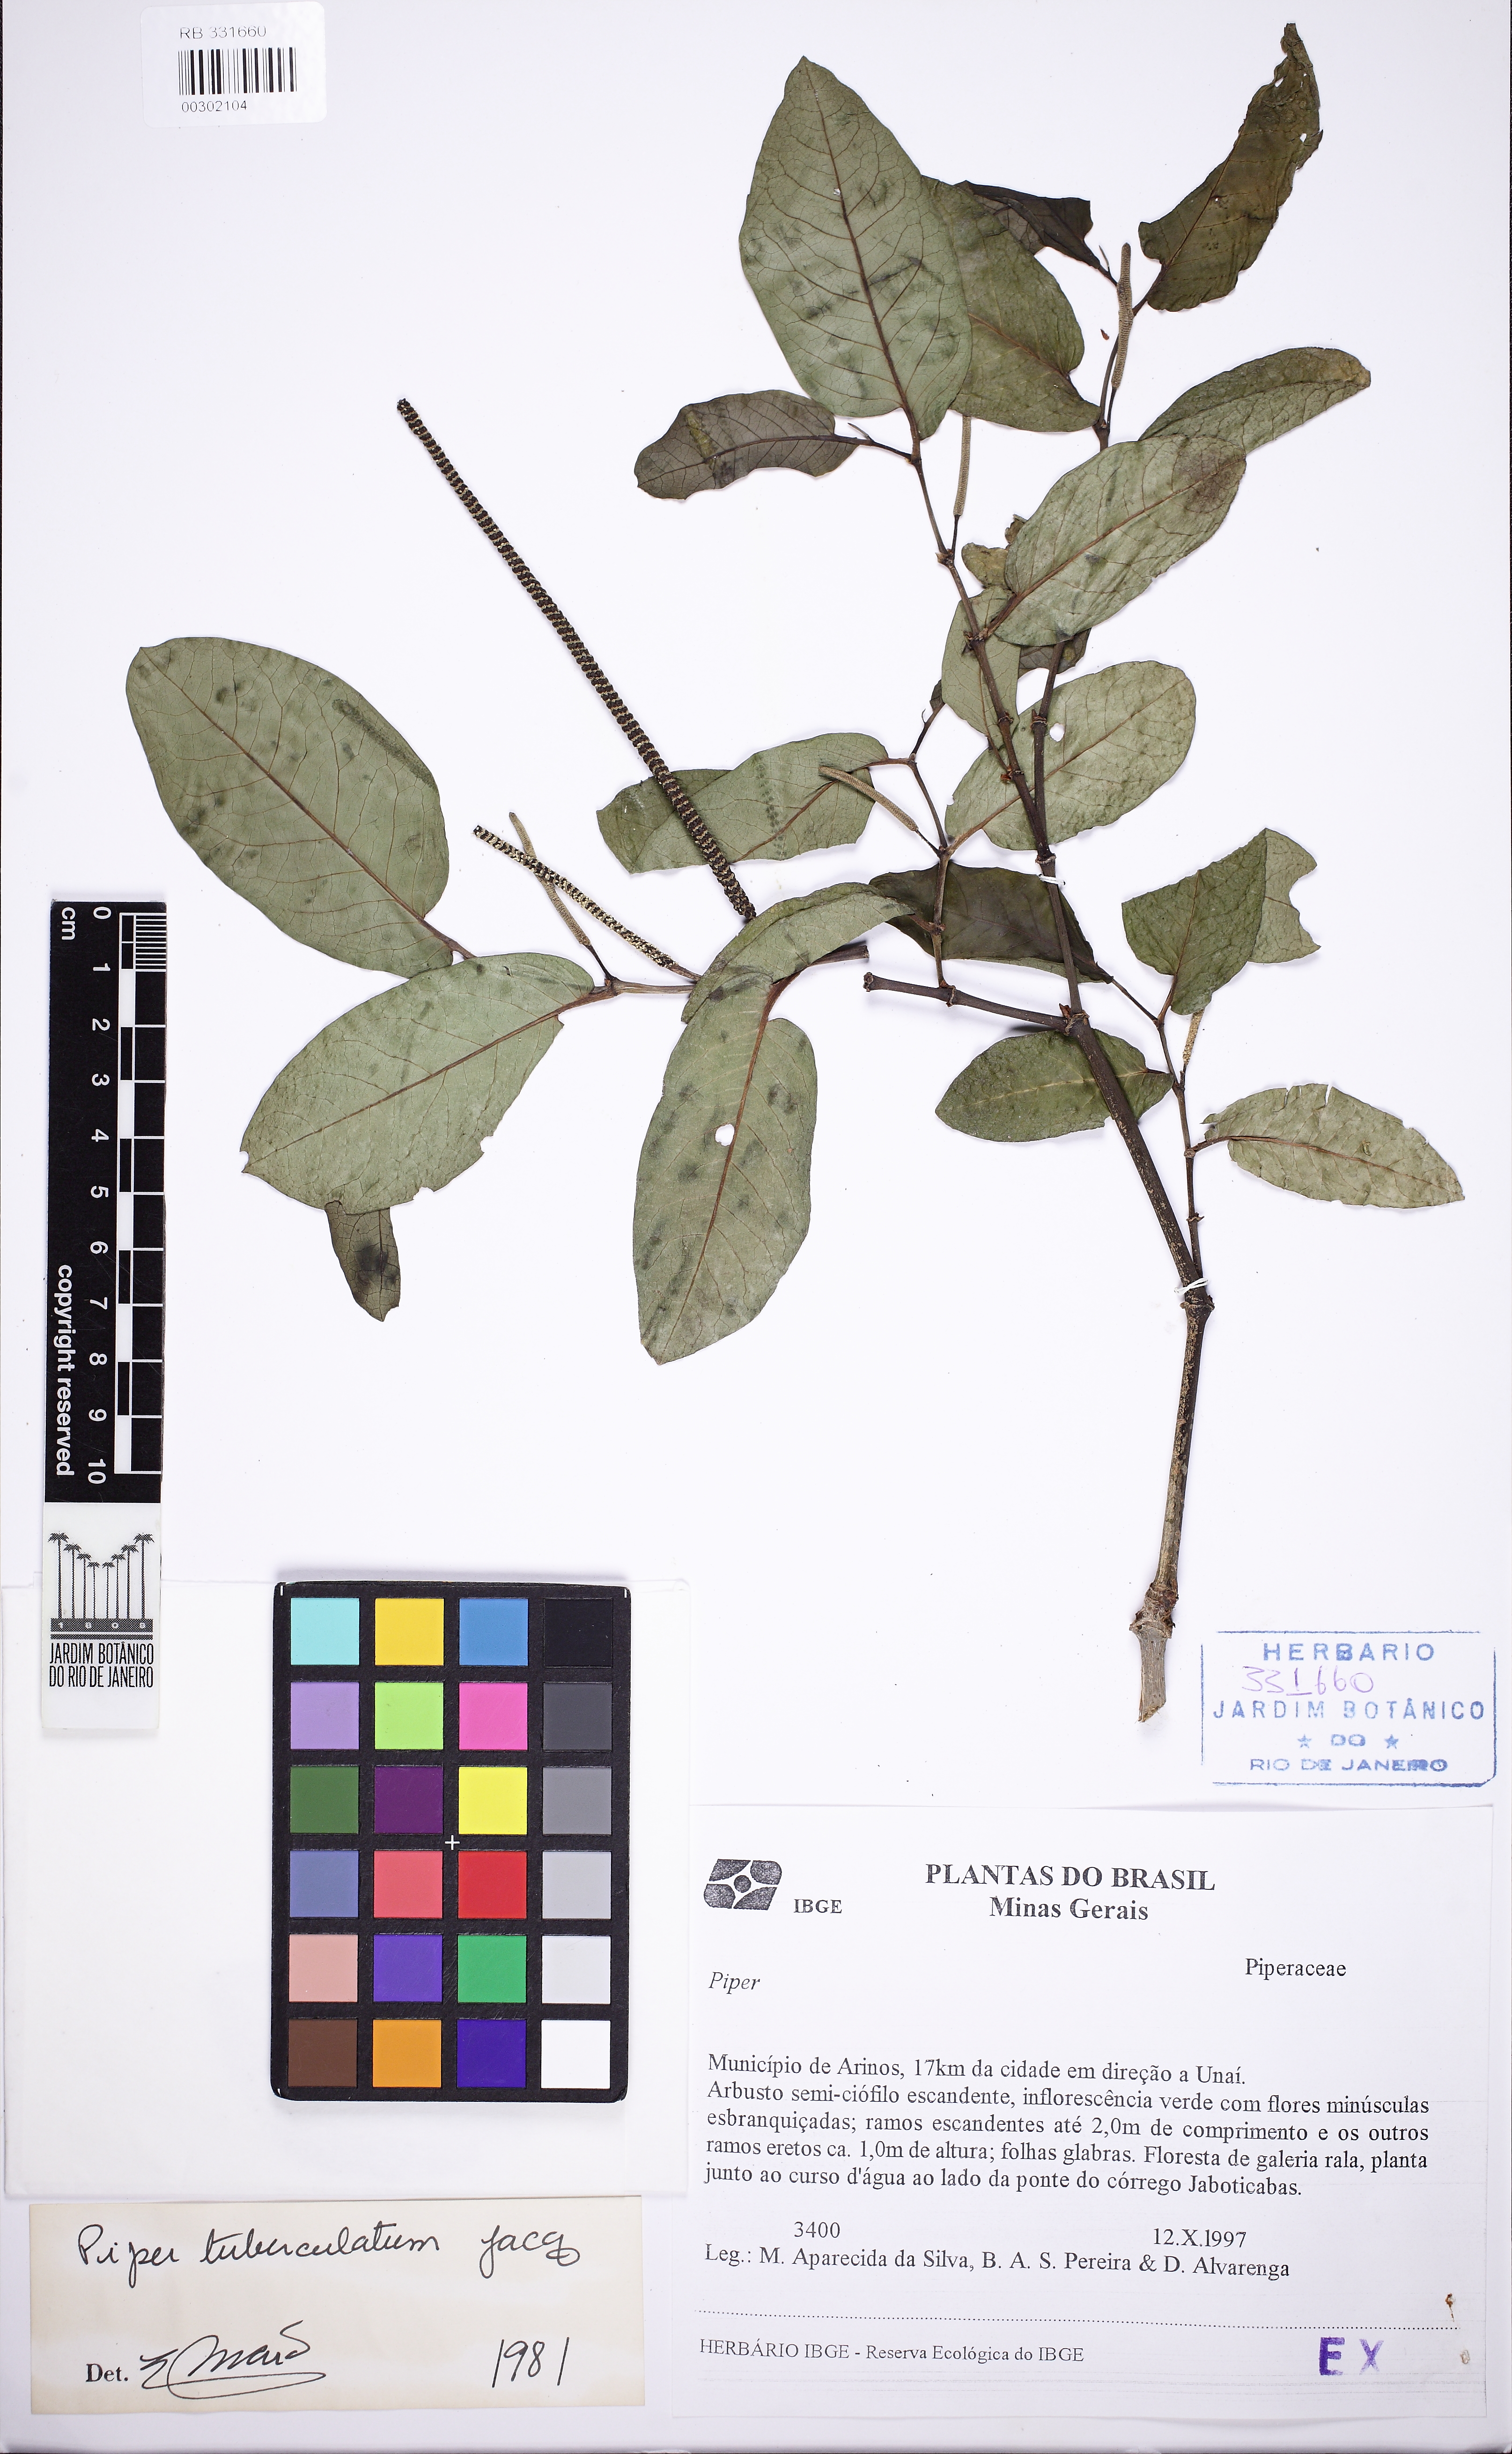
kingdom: Plantae
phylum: Tracheophyta
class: Magnoliopsida
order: Piperales
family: Piperaceae
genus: Piper
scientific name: Piper tuberculatum
